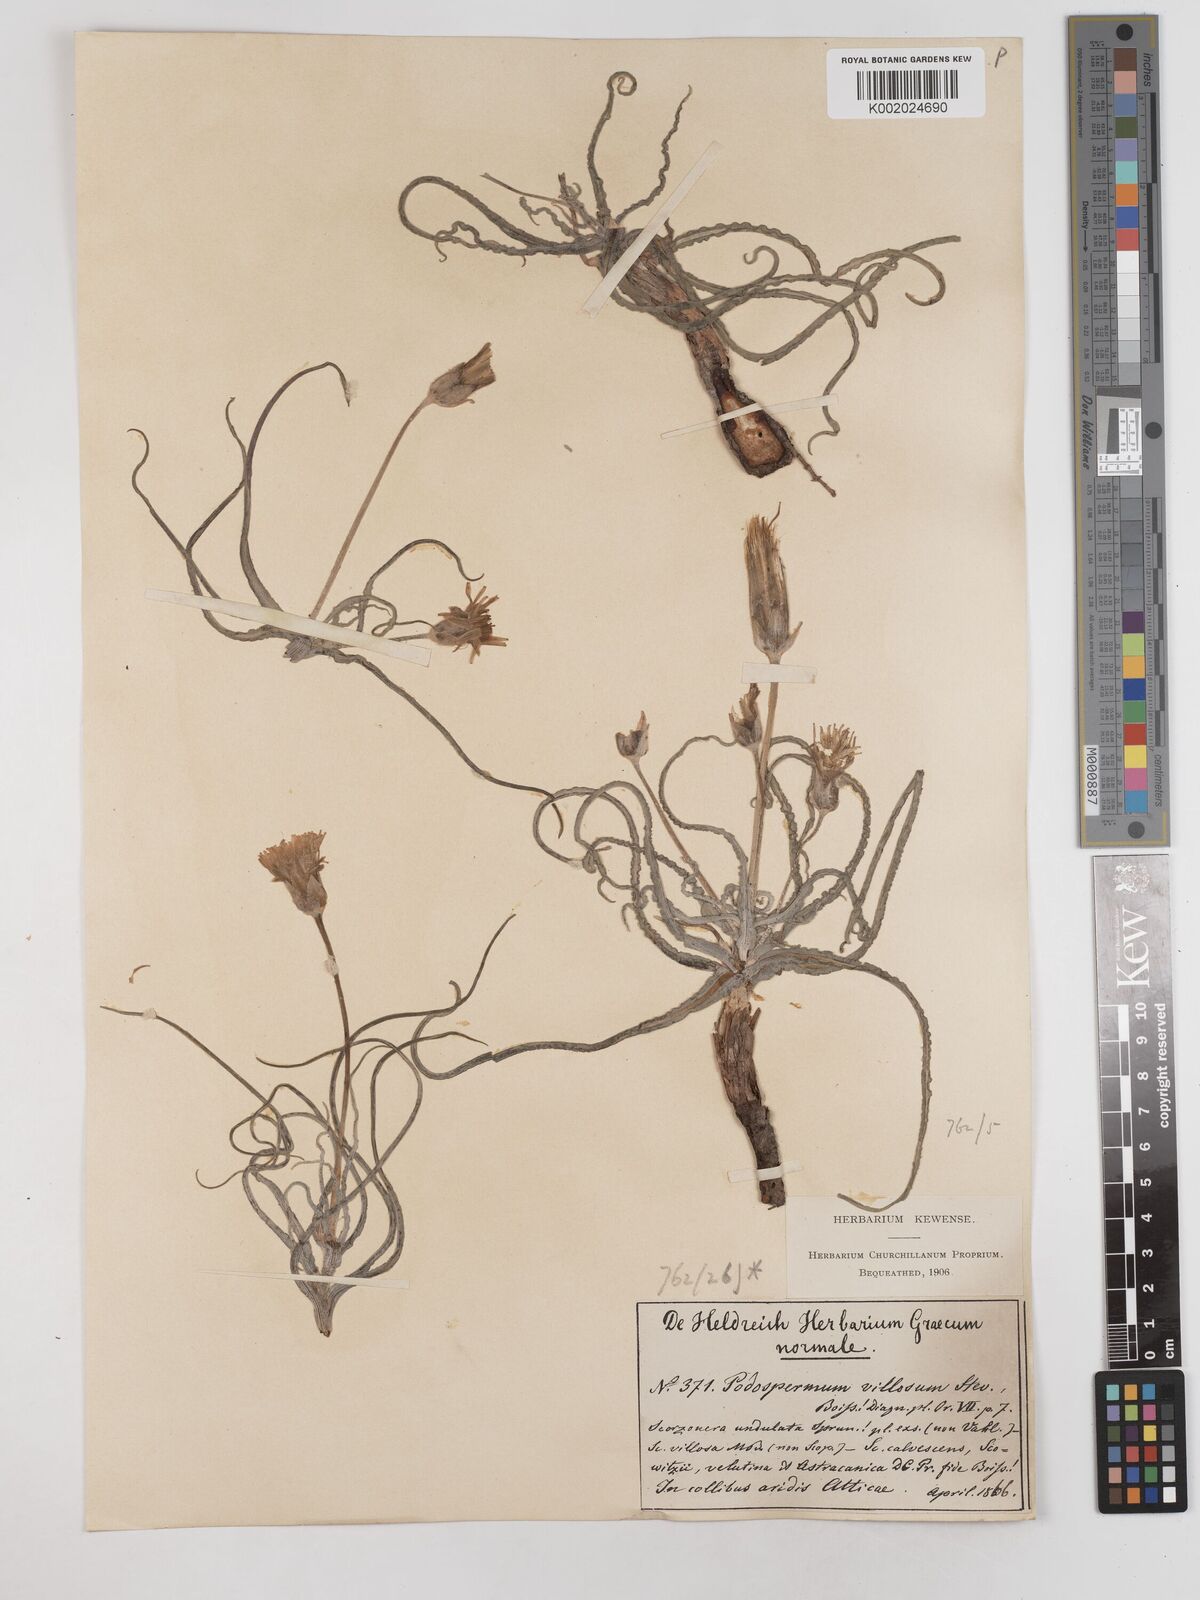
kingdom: Plantae
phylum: Tracheophyta
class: Magnoliopsida
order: Asterales
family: Asteraceae
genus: Candollea
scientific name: Candollea mollis
